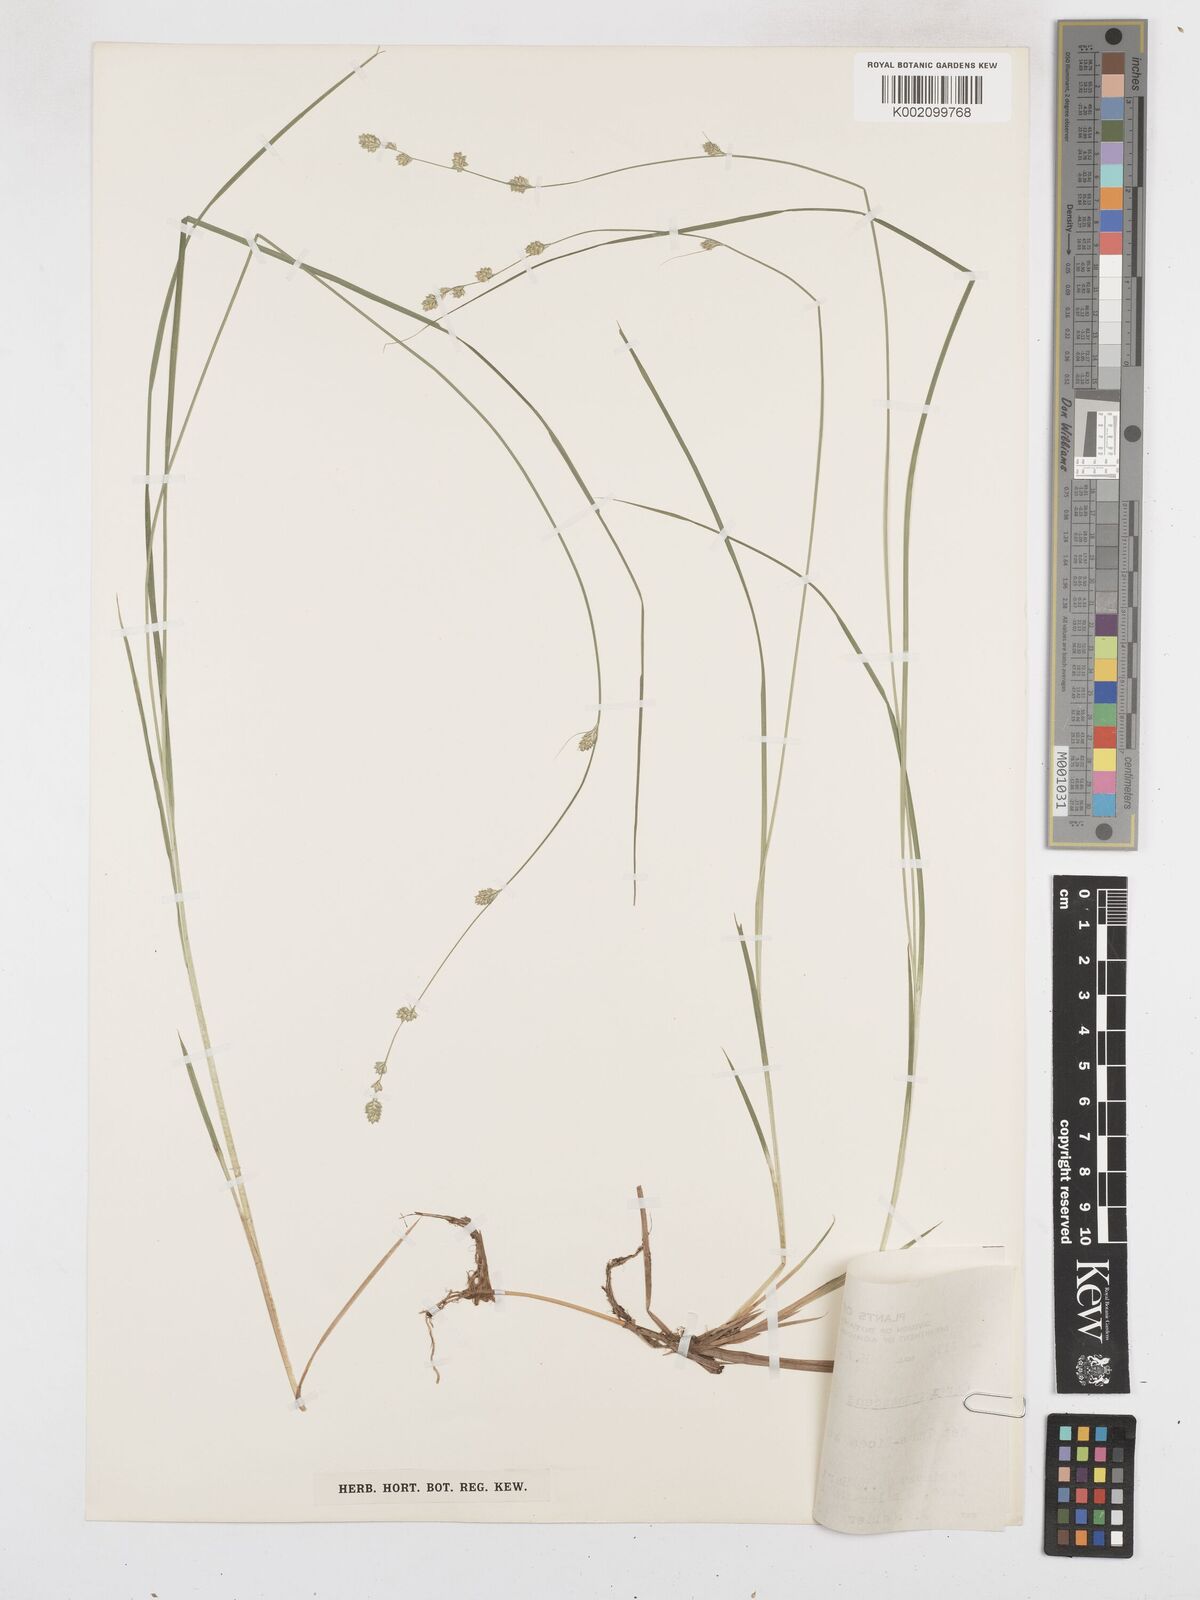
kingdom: Plantae
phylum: Tracheophyta
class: Liliopsida
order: Poales
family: Cyperaceae
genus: Carex
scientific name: Carex curta
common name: White sedge
